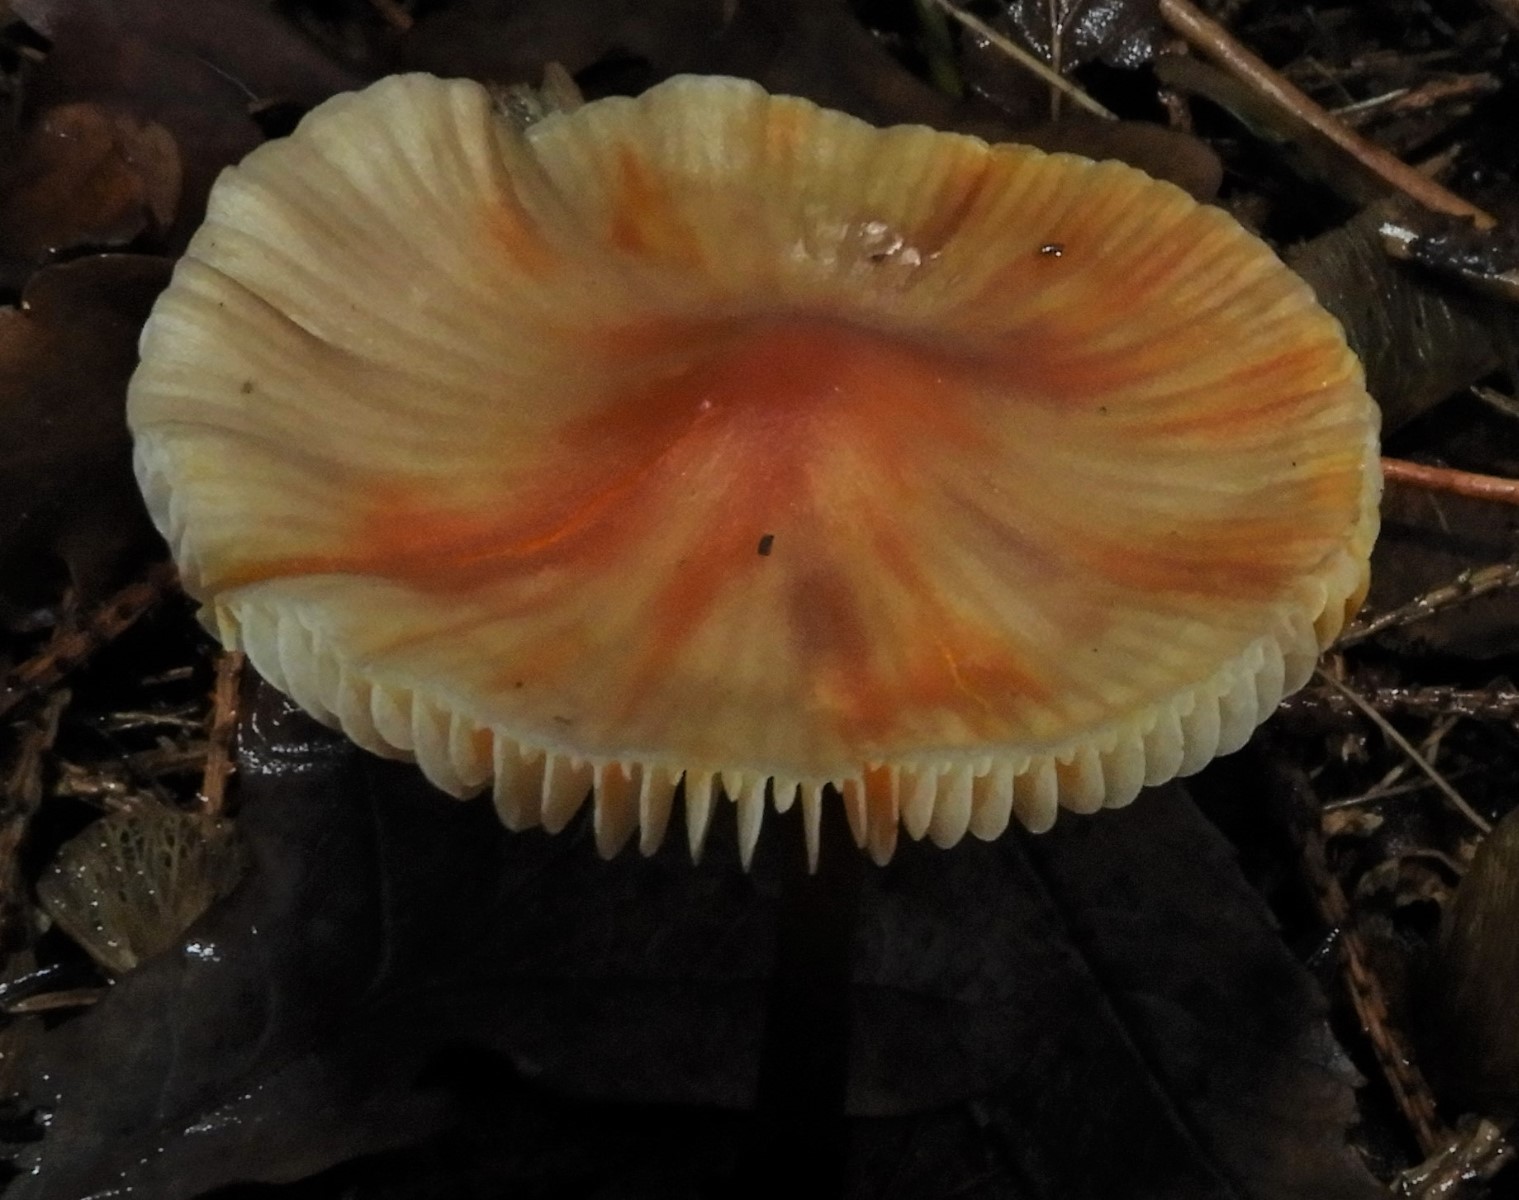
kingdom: Fungi
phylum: Basidiomycota
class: Agaricomycetes
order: Agaricales
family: Mycenaceae
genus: Mycena
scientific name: Mycena crocata
